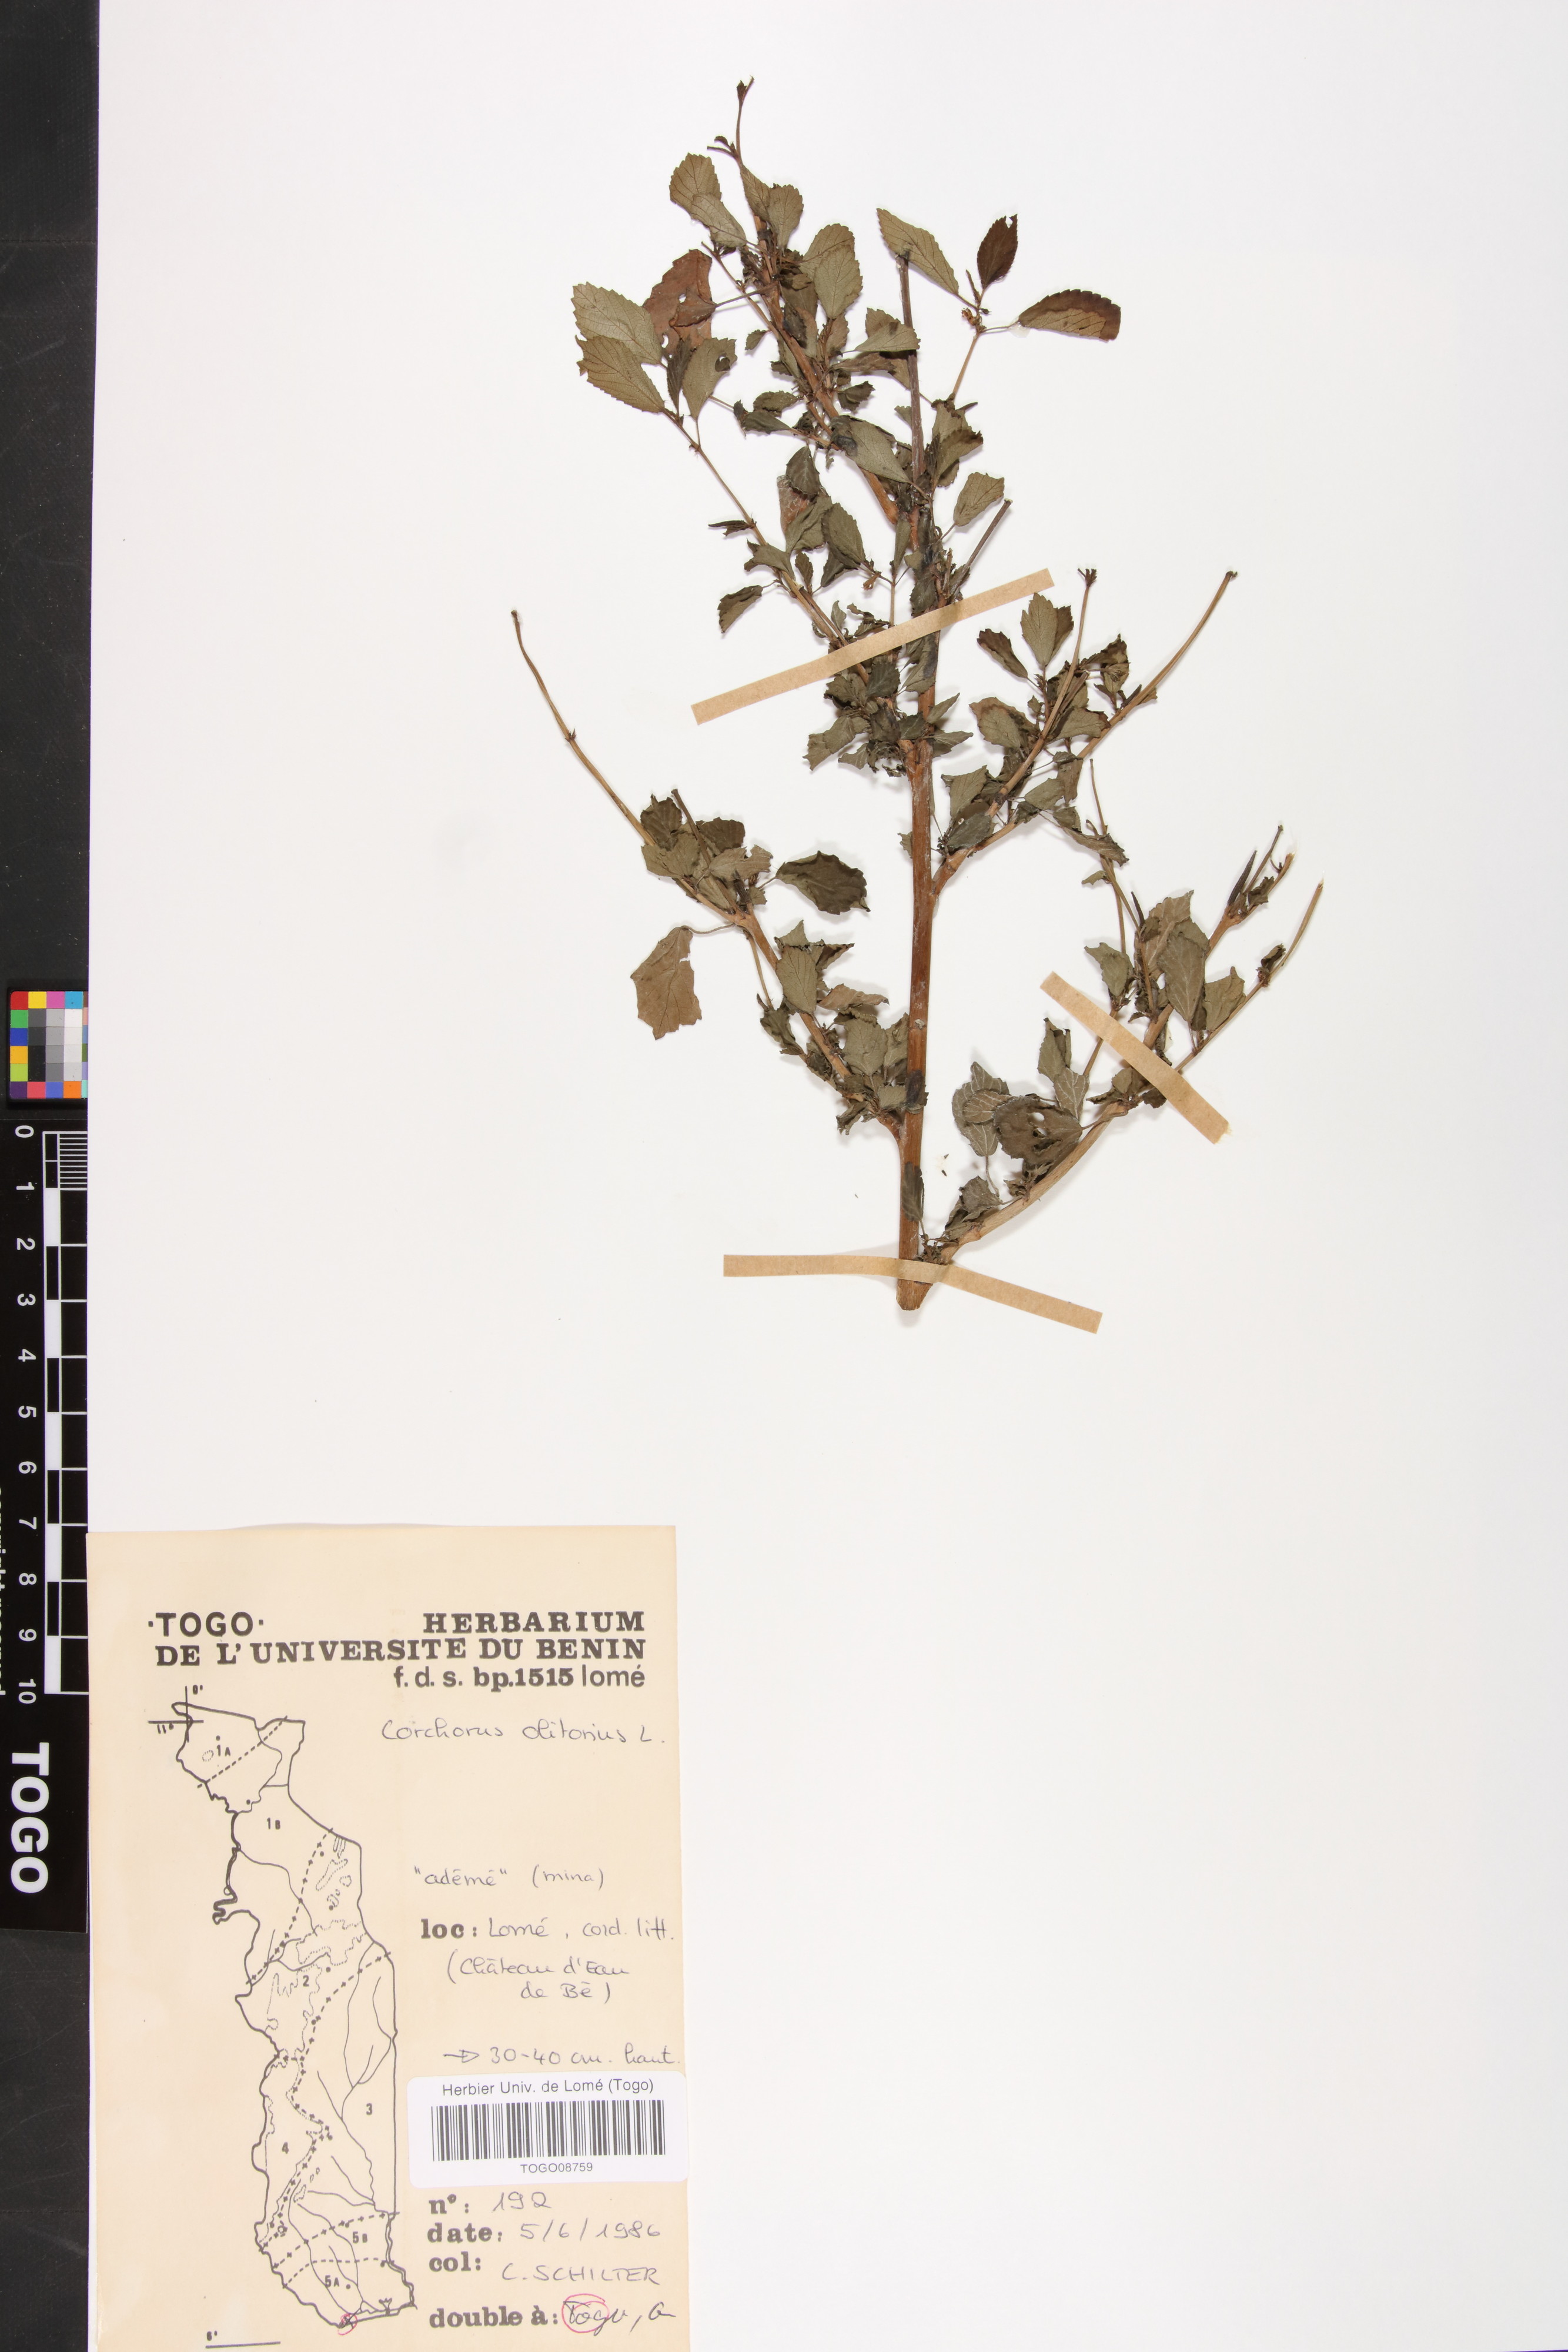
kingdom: Plantae
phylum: Tracheophyta
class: Magnoliopsida
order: Malvales
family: Malvaceae
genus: Corchorus
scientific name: Corchorus olitorius
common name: Tossa jute
